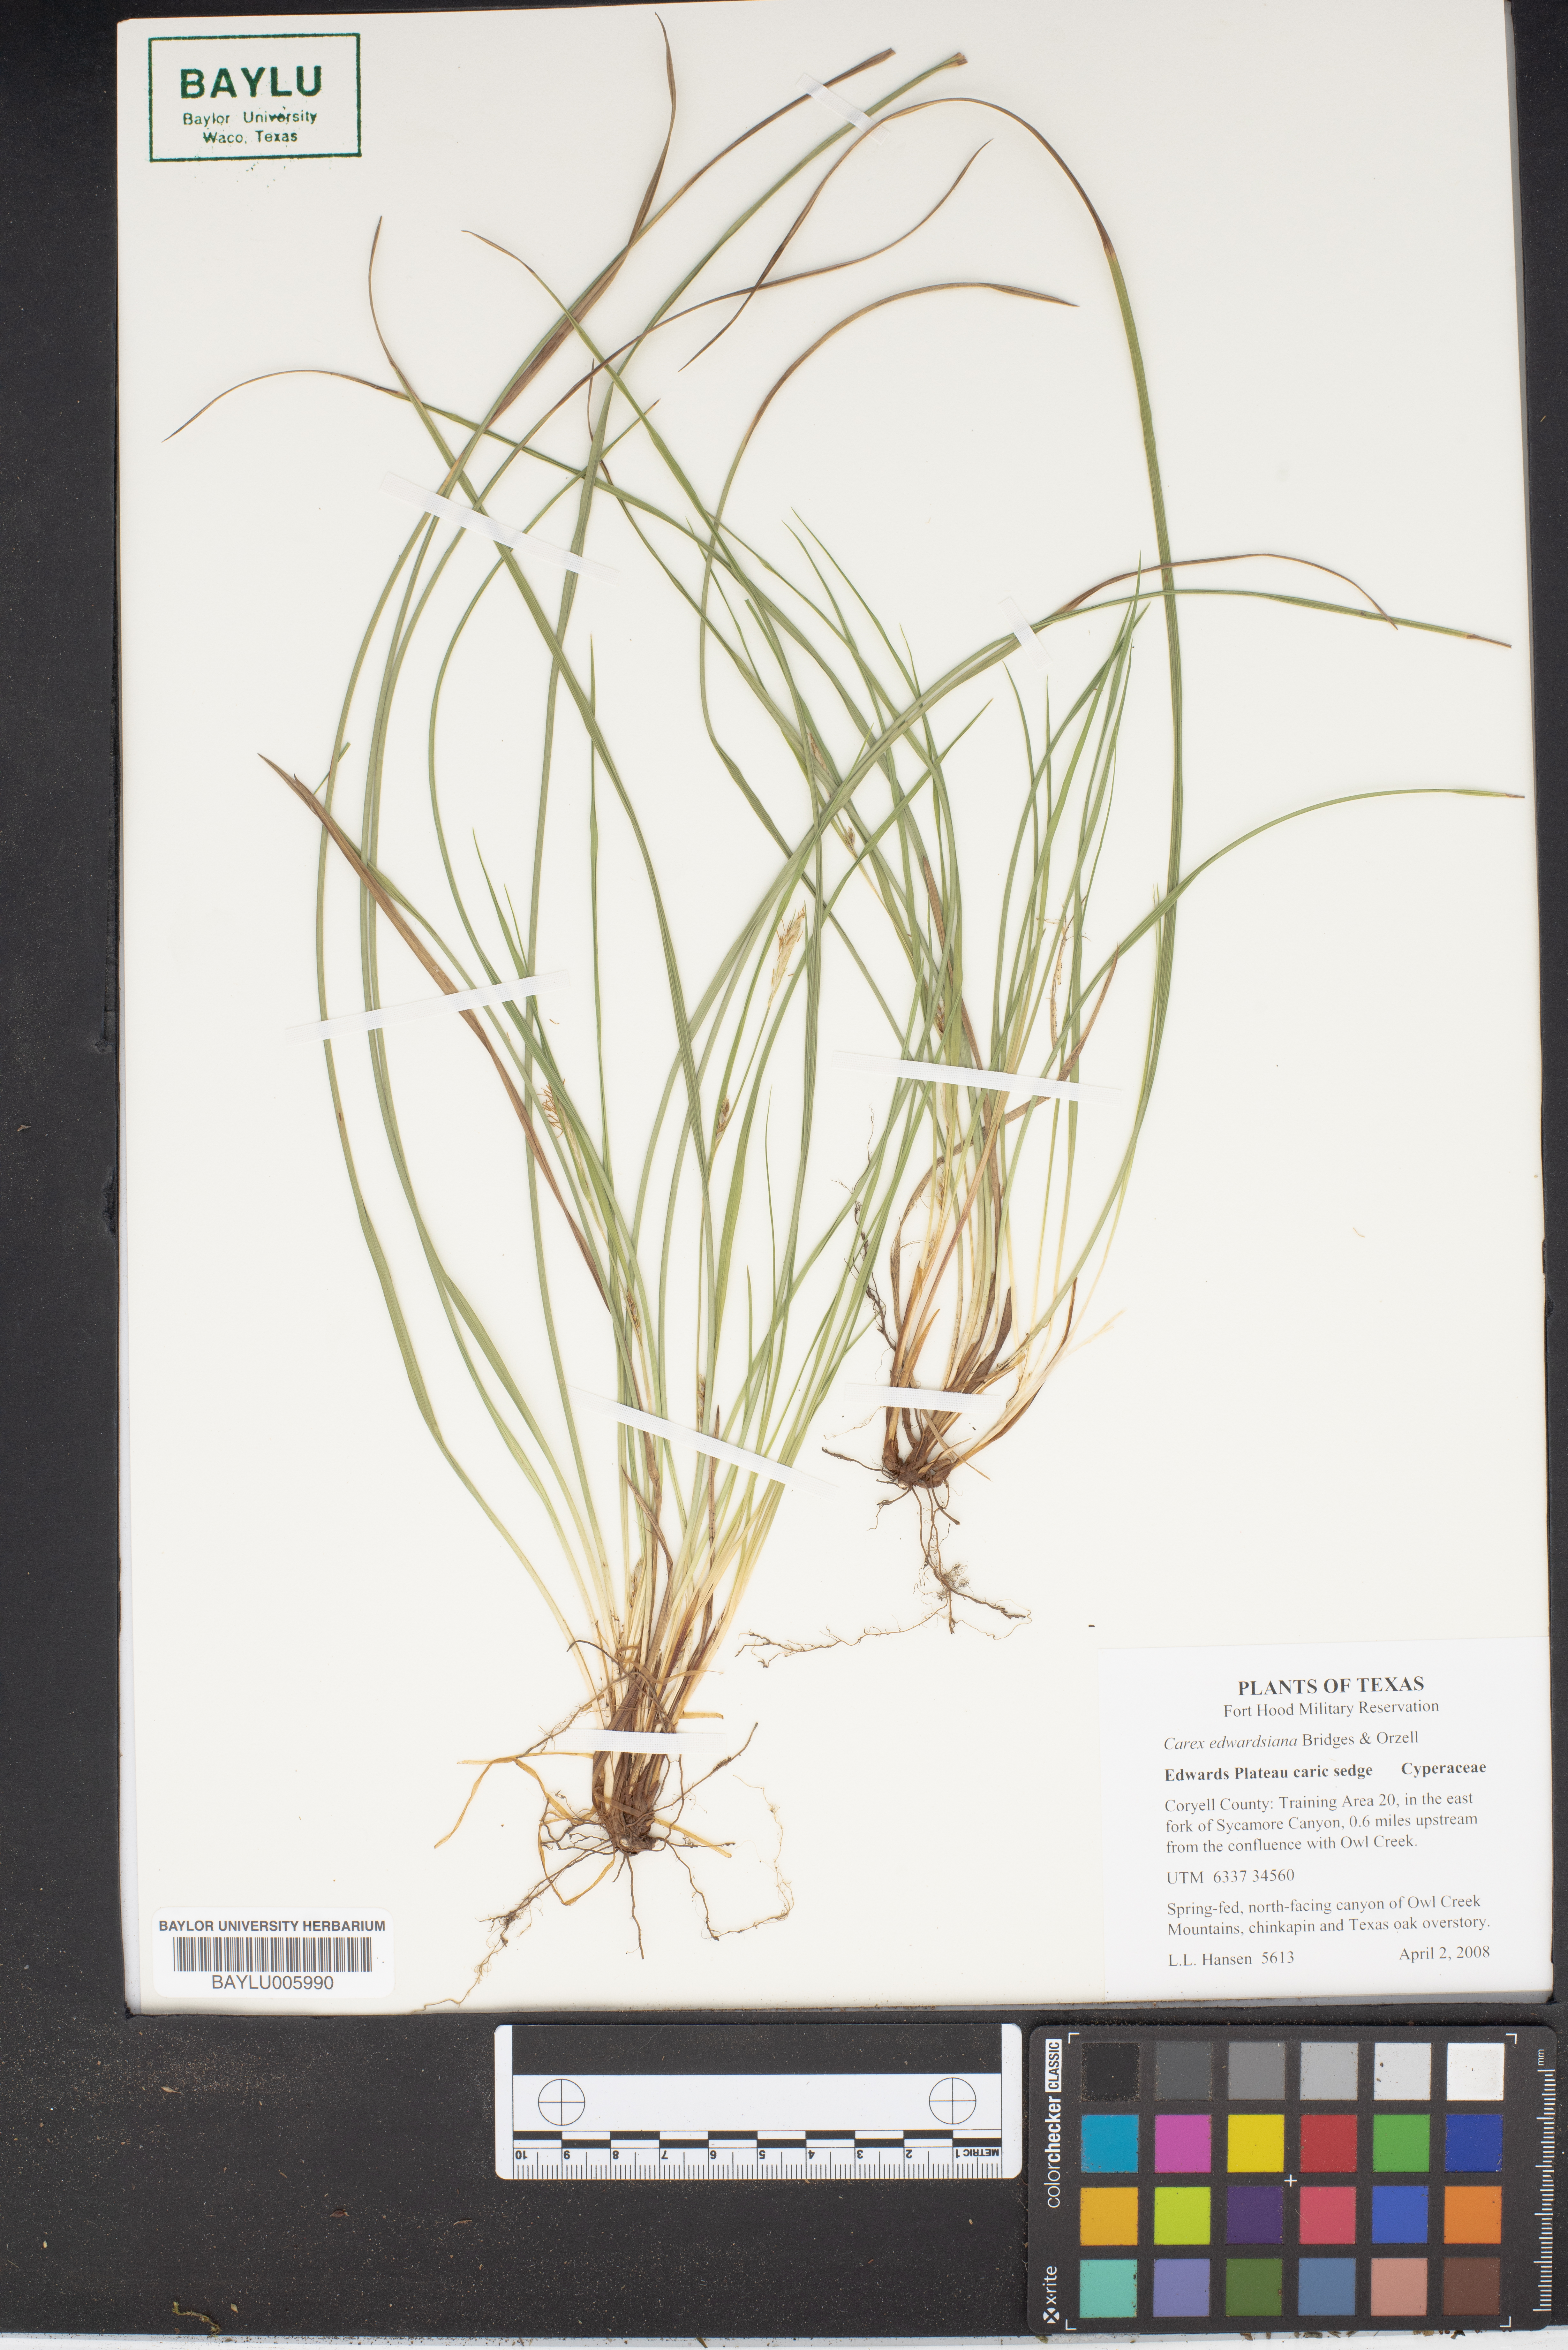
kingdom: Plantae
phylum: Tracheophyta
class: Liliopsida
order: Poales
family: Cyperaceae
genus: Carex
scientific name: Carex edwardsiana
